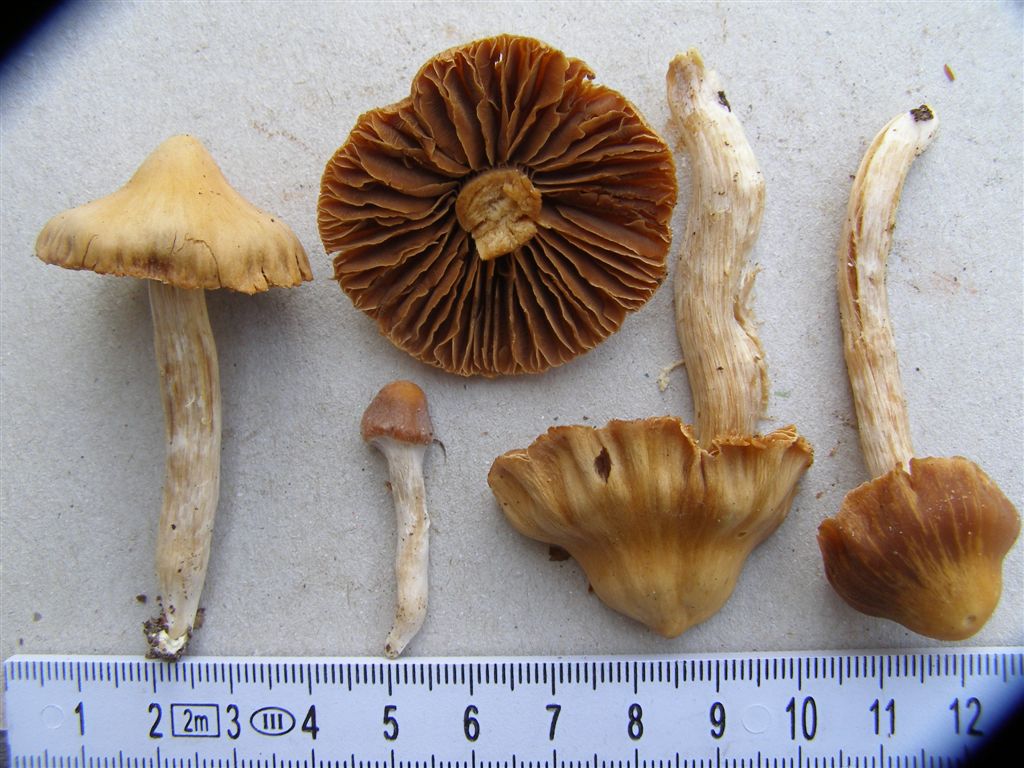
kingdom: Fungi
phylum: Basidiomycota
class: Agaricomycetes
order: Agaricales
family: Cortinariaceae
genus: Cortinarius
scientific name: Cortinarius
